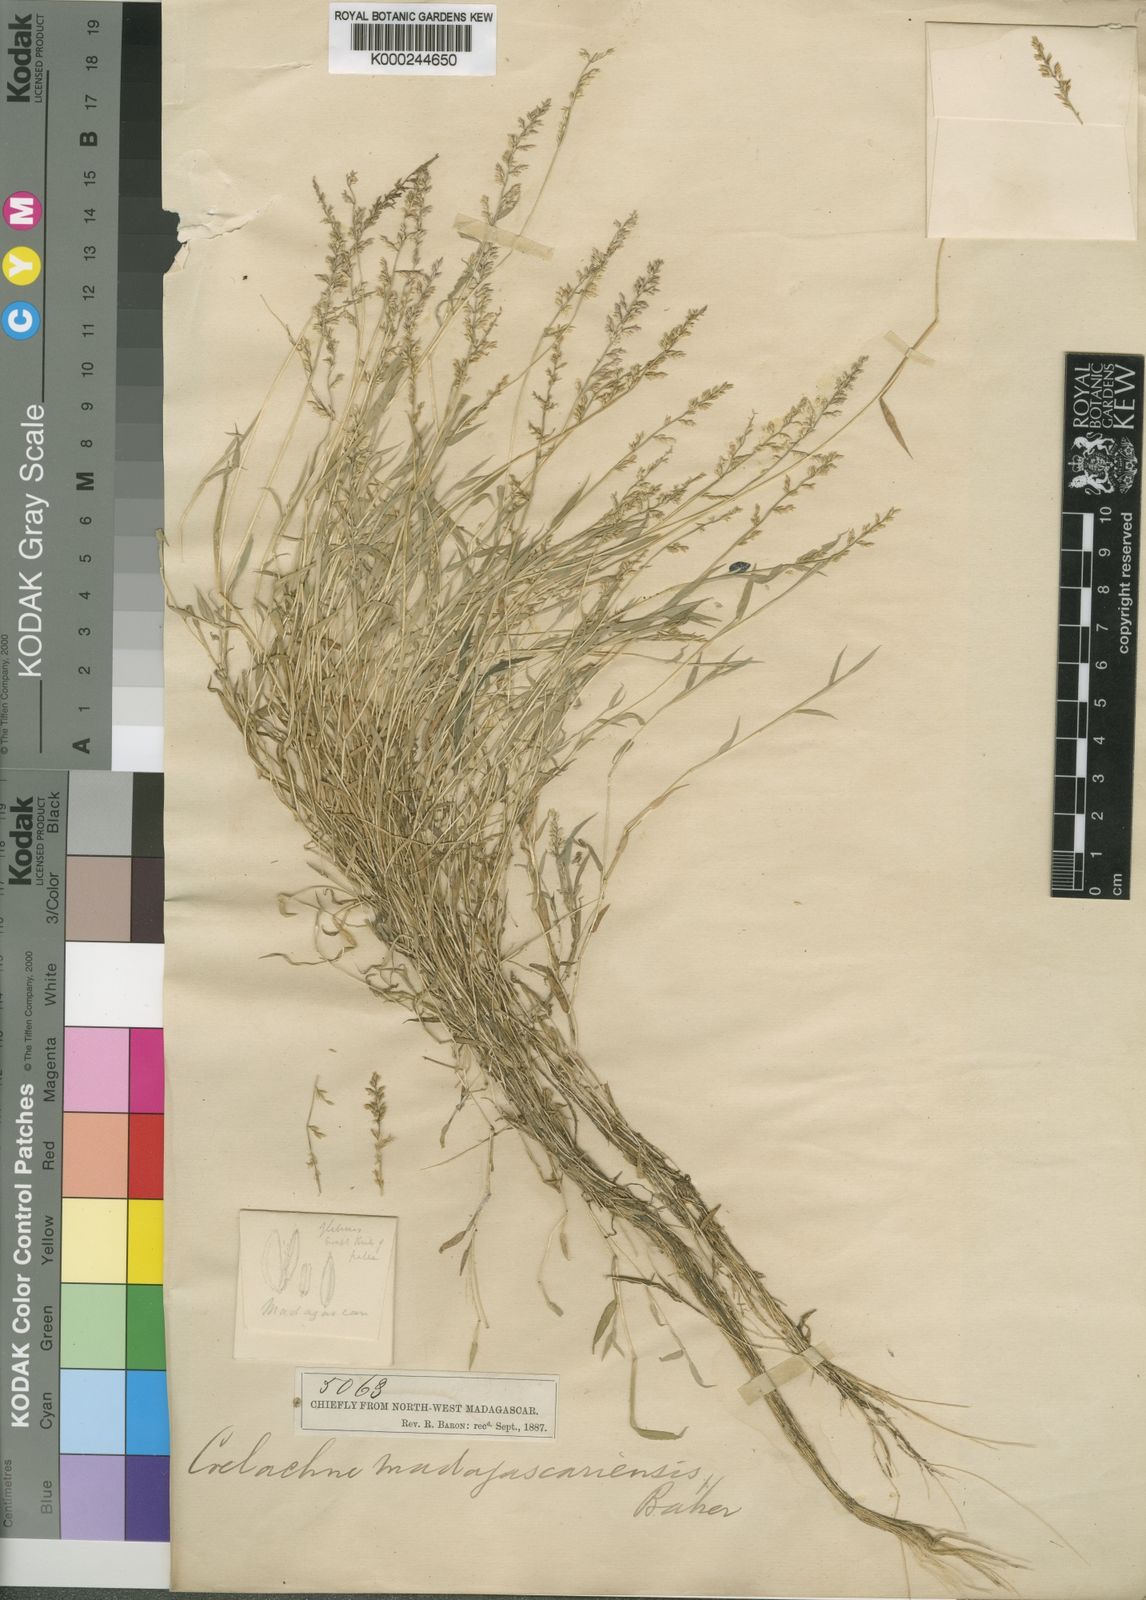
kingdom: Plantae
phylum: Tracheophyta
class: Liliopsida
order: Poales
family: Poaceae
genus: Coelachne
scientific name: Coelachne simpliciuscula
